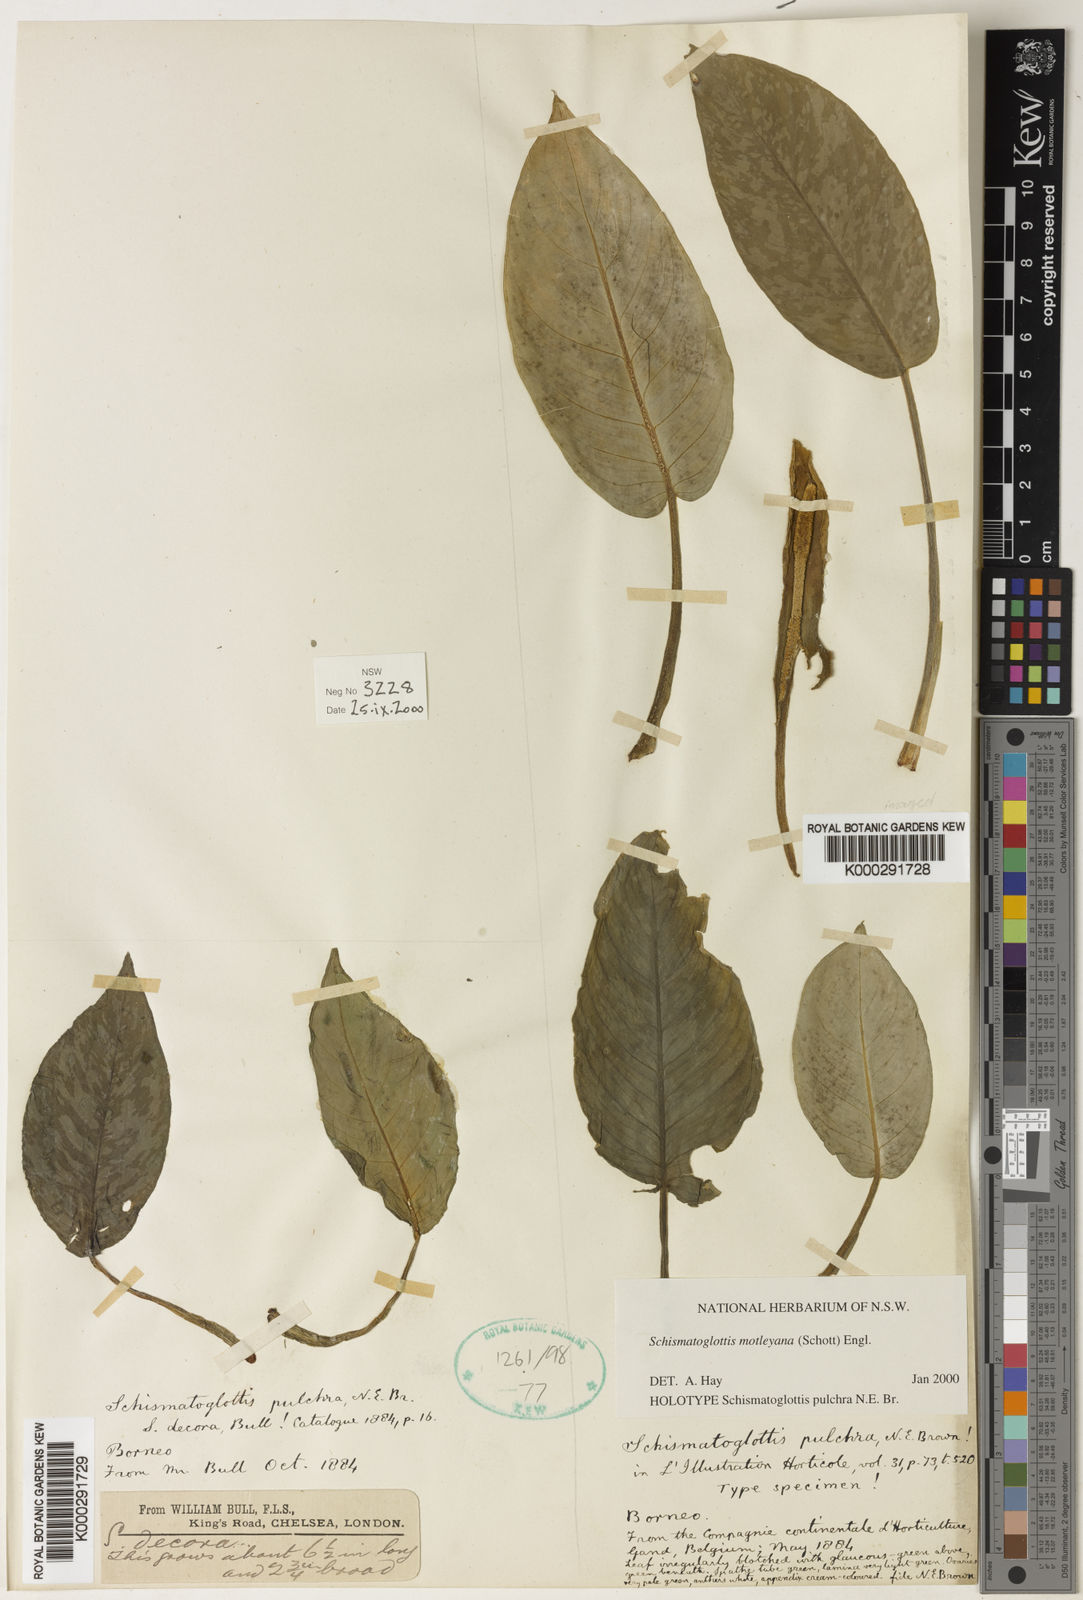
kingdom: Plantae
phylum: Tracheophyta
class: Liliopsida
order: Alismatales
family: Araceae
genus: Schismatoglottis
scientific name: Schismatoglottis motleyana
